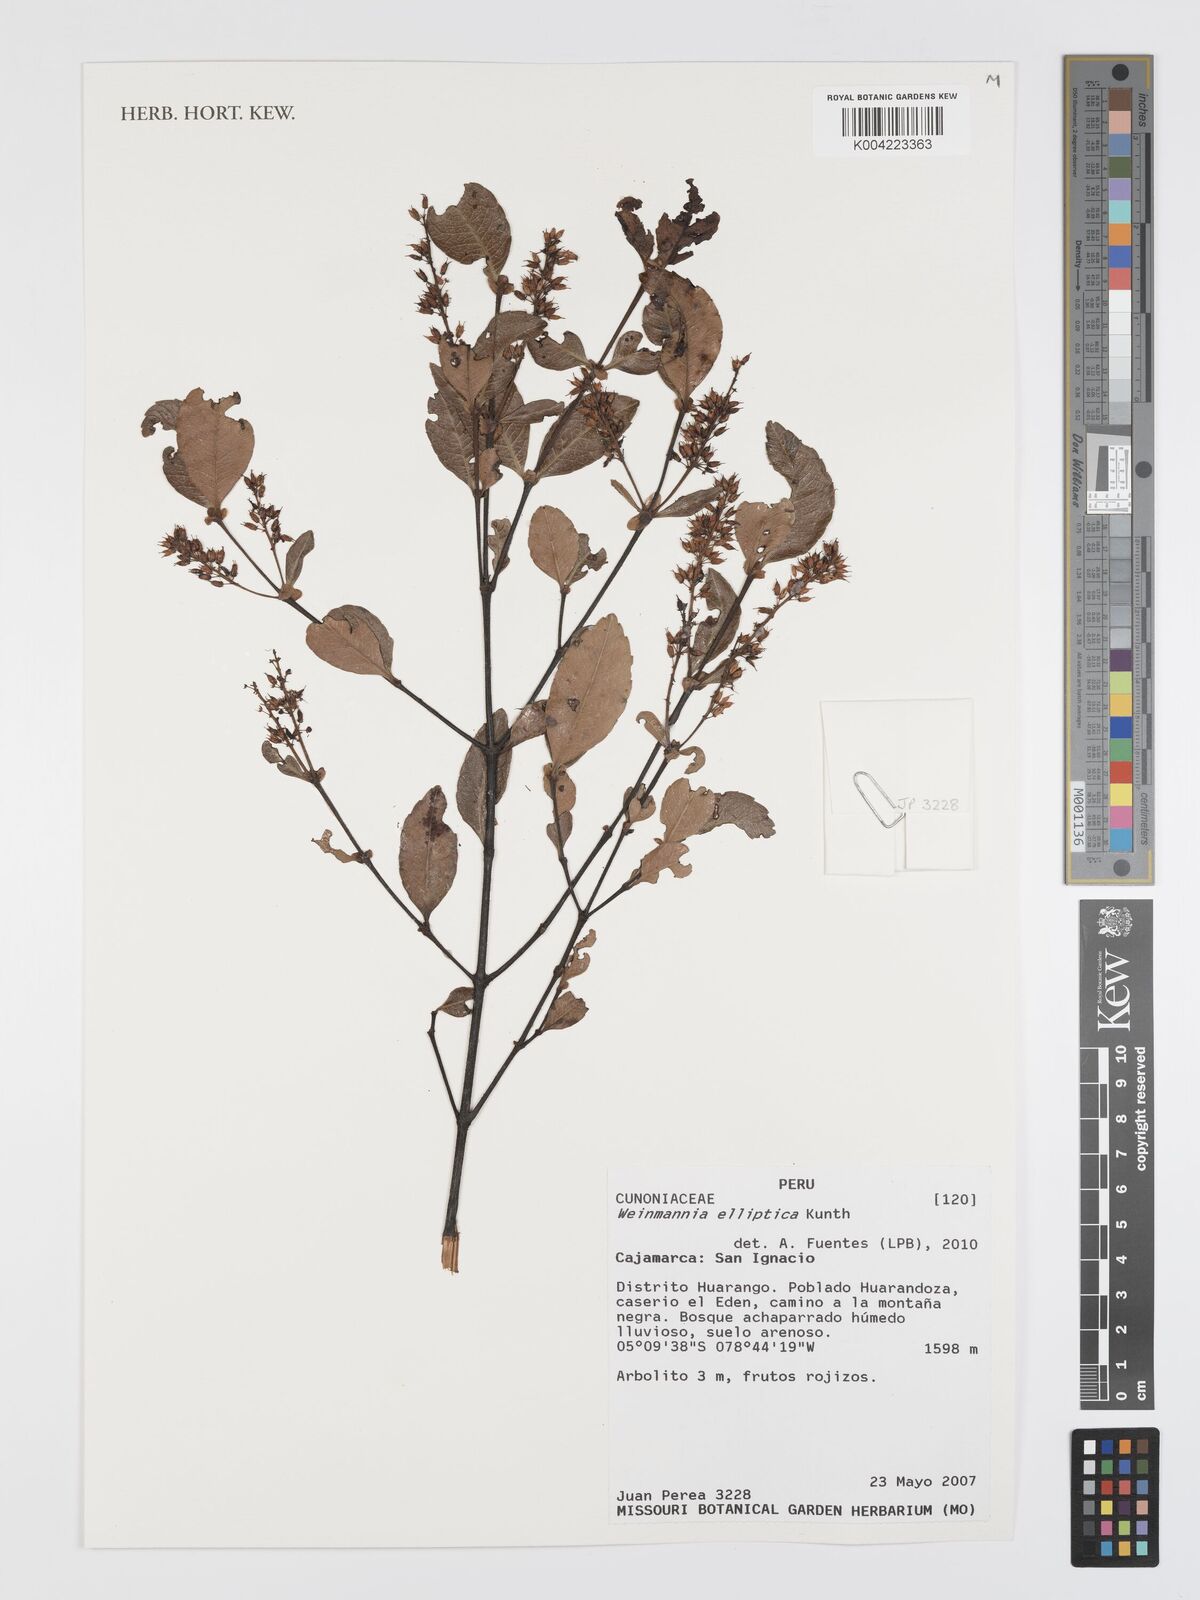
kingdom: Plantae
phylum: Tracheophyta
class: Magnoliopsida
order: Oxalidales
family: Cunoniaceae
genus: Weinmannia
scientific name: Weinmannia elliptica
